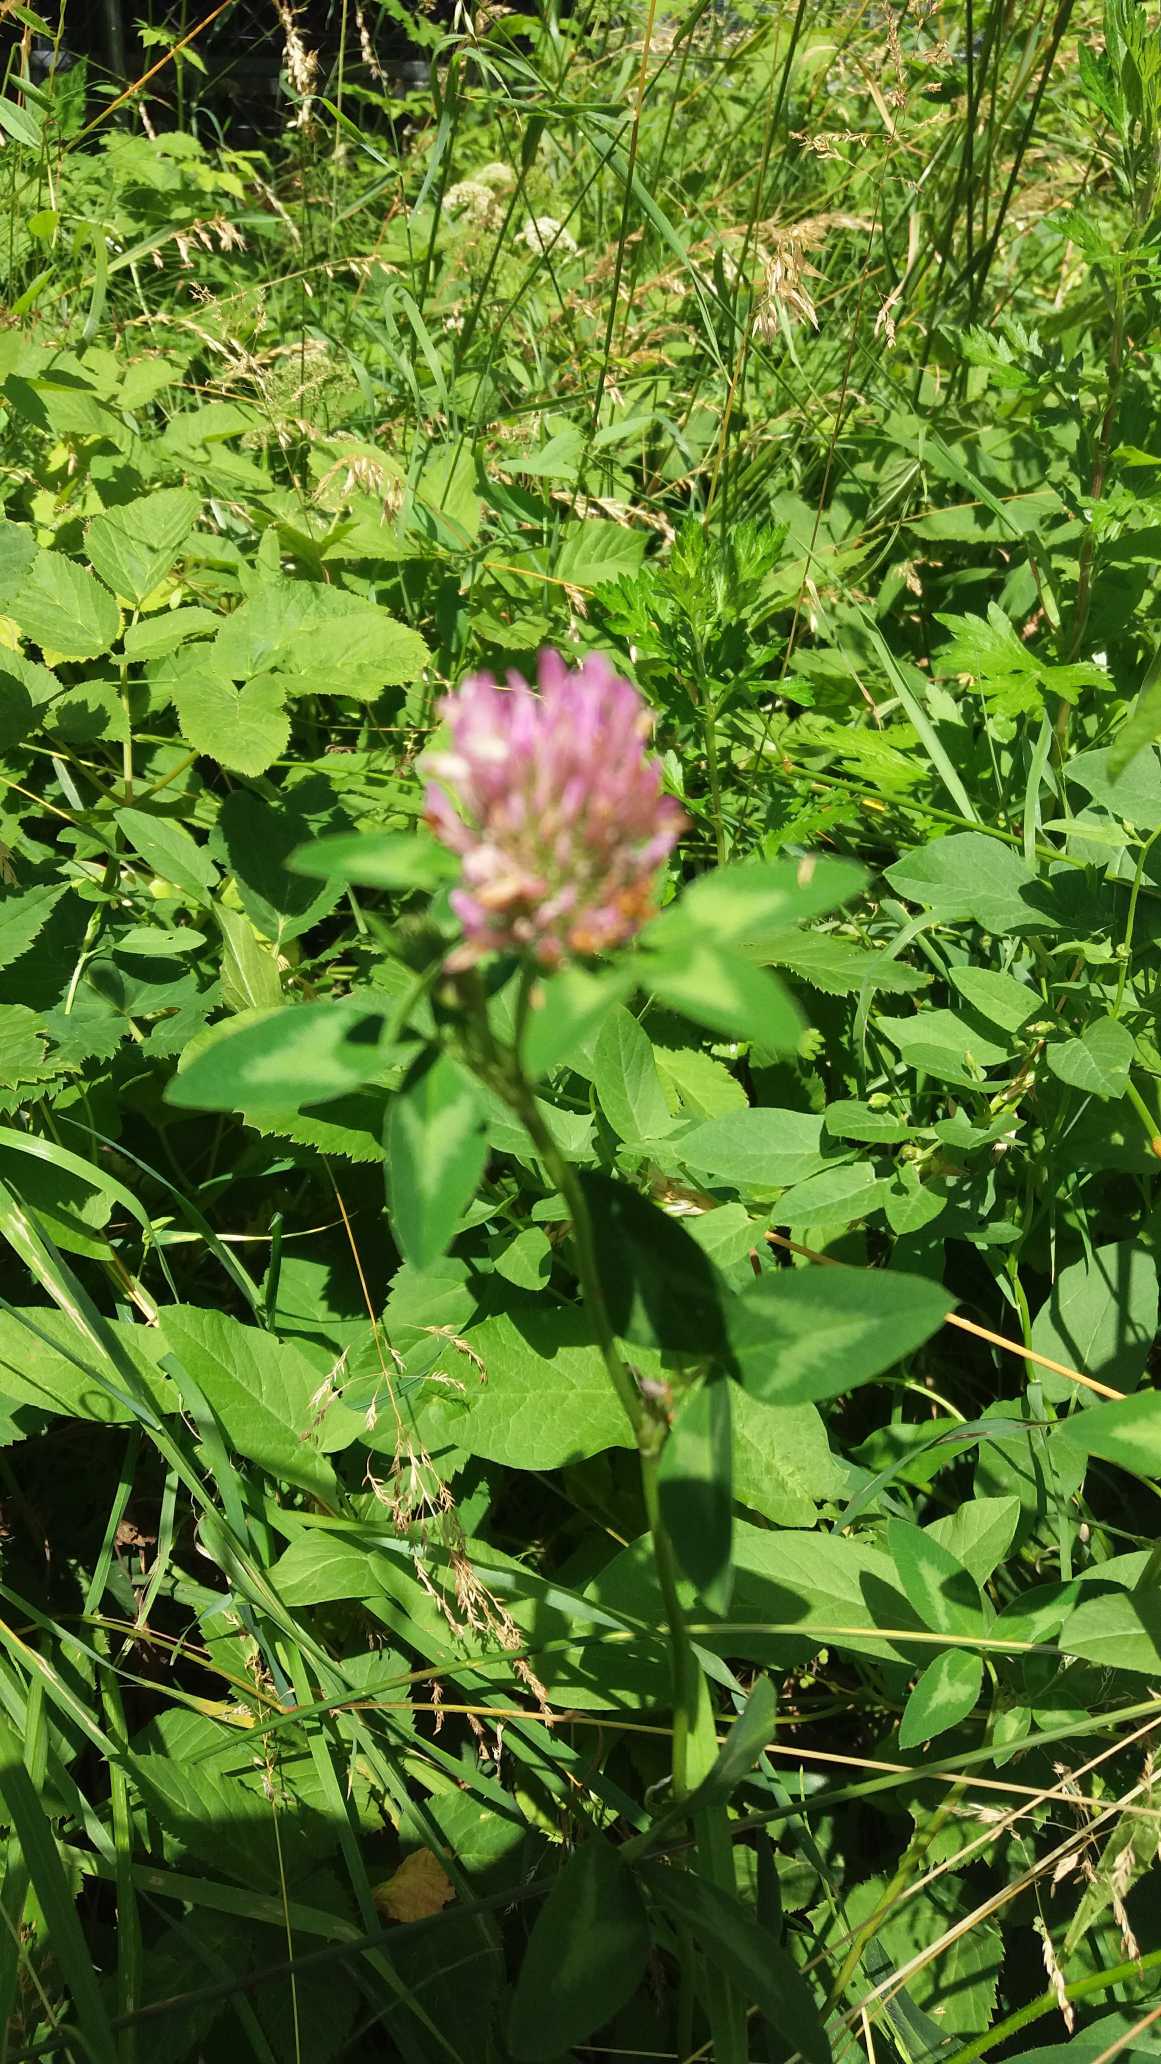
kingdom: Plantae
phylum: Tracheophyta
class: Magnoliopsida
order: Fabales
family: Fabaceae
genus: Trifolium
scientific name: Trifolium pratense
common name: Rød-kløver
